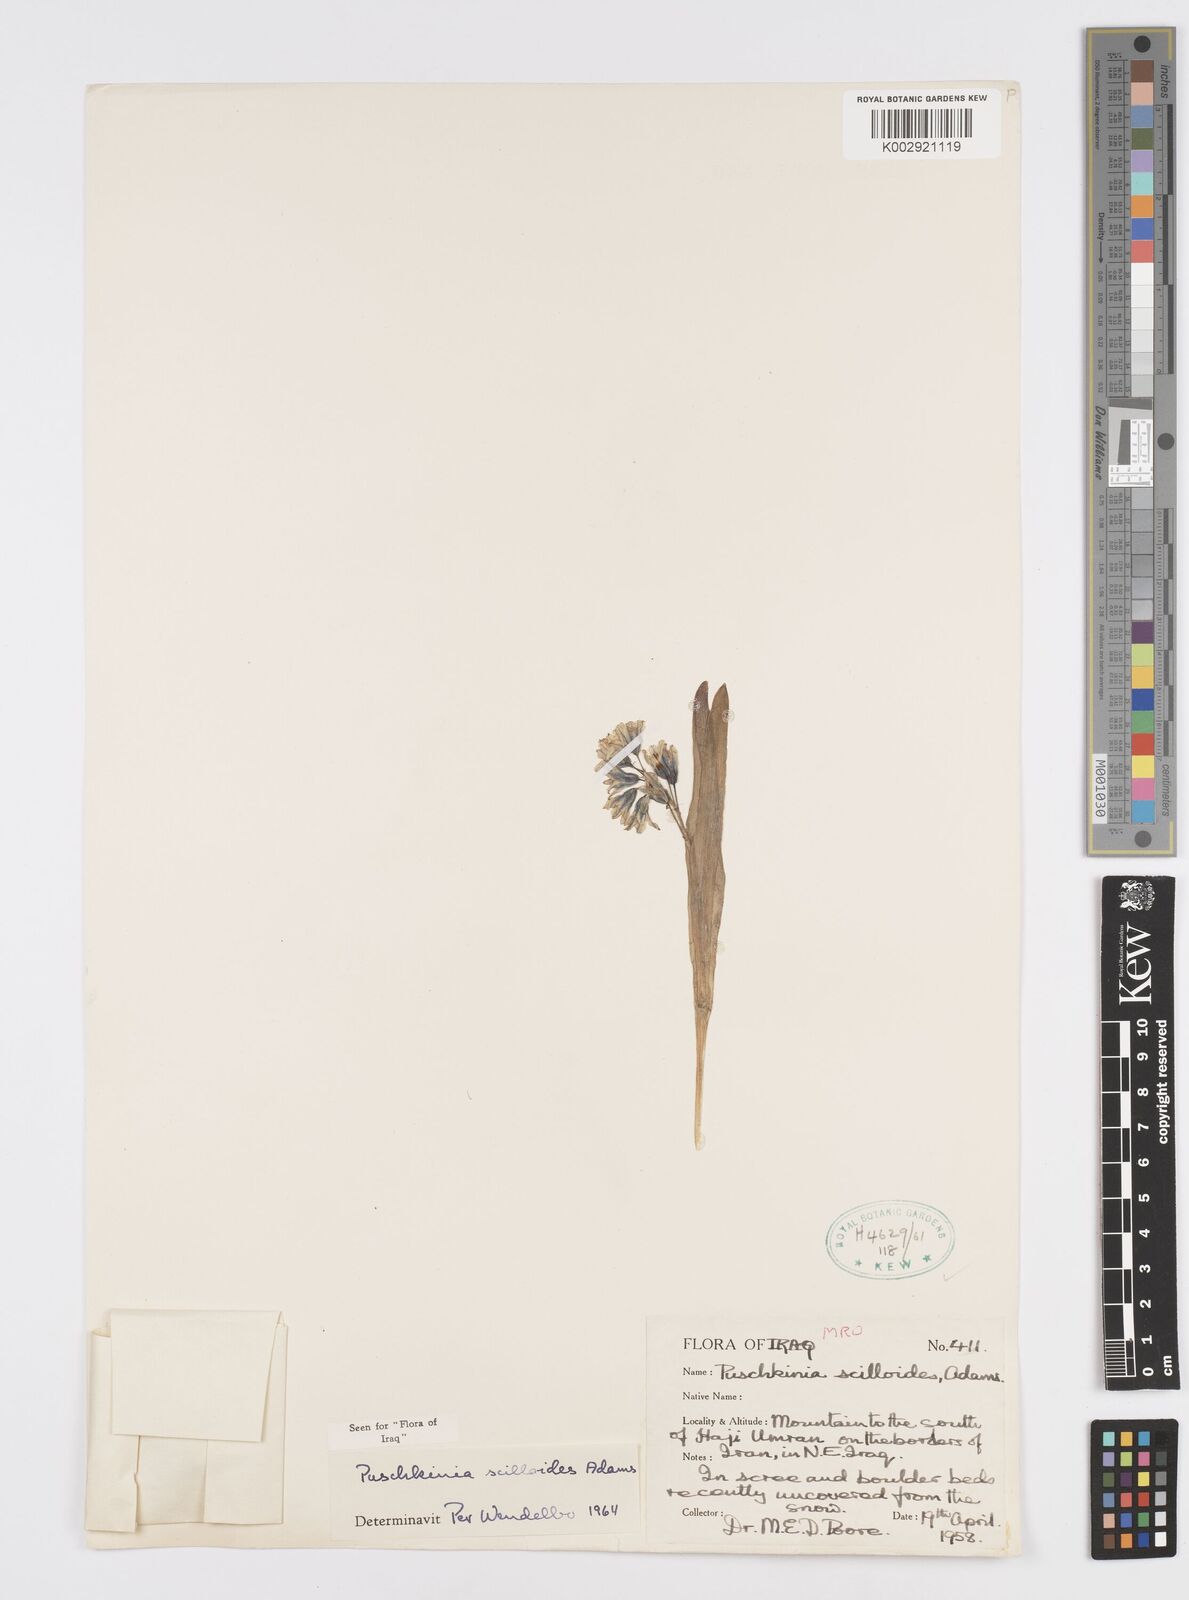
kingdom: Plantae
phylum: Tracheophyta
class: Liliopsida
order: Asparagales
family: Asparagaceae
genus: Puschkinia
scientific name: Puschkinia scilloides
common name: Striped squill
